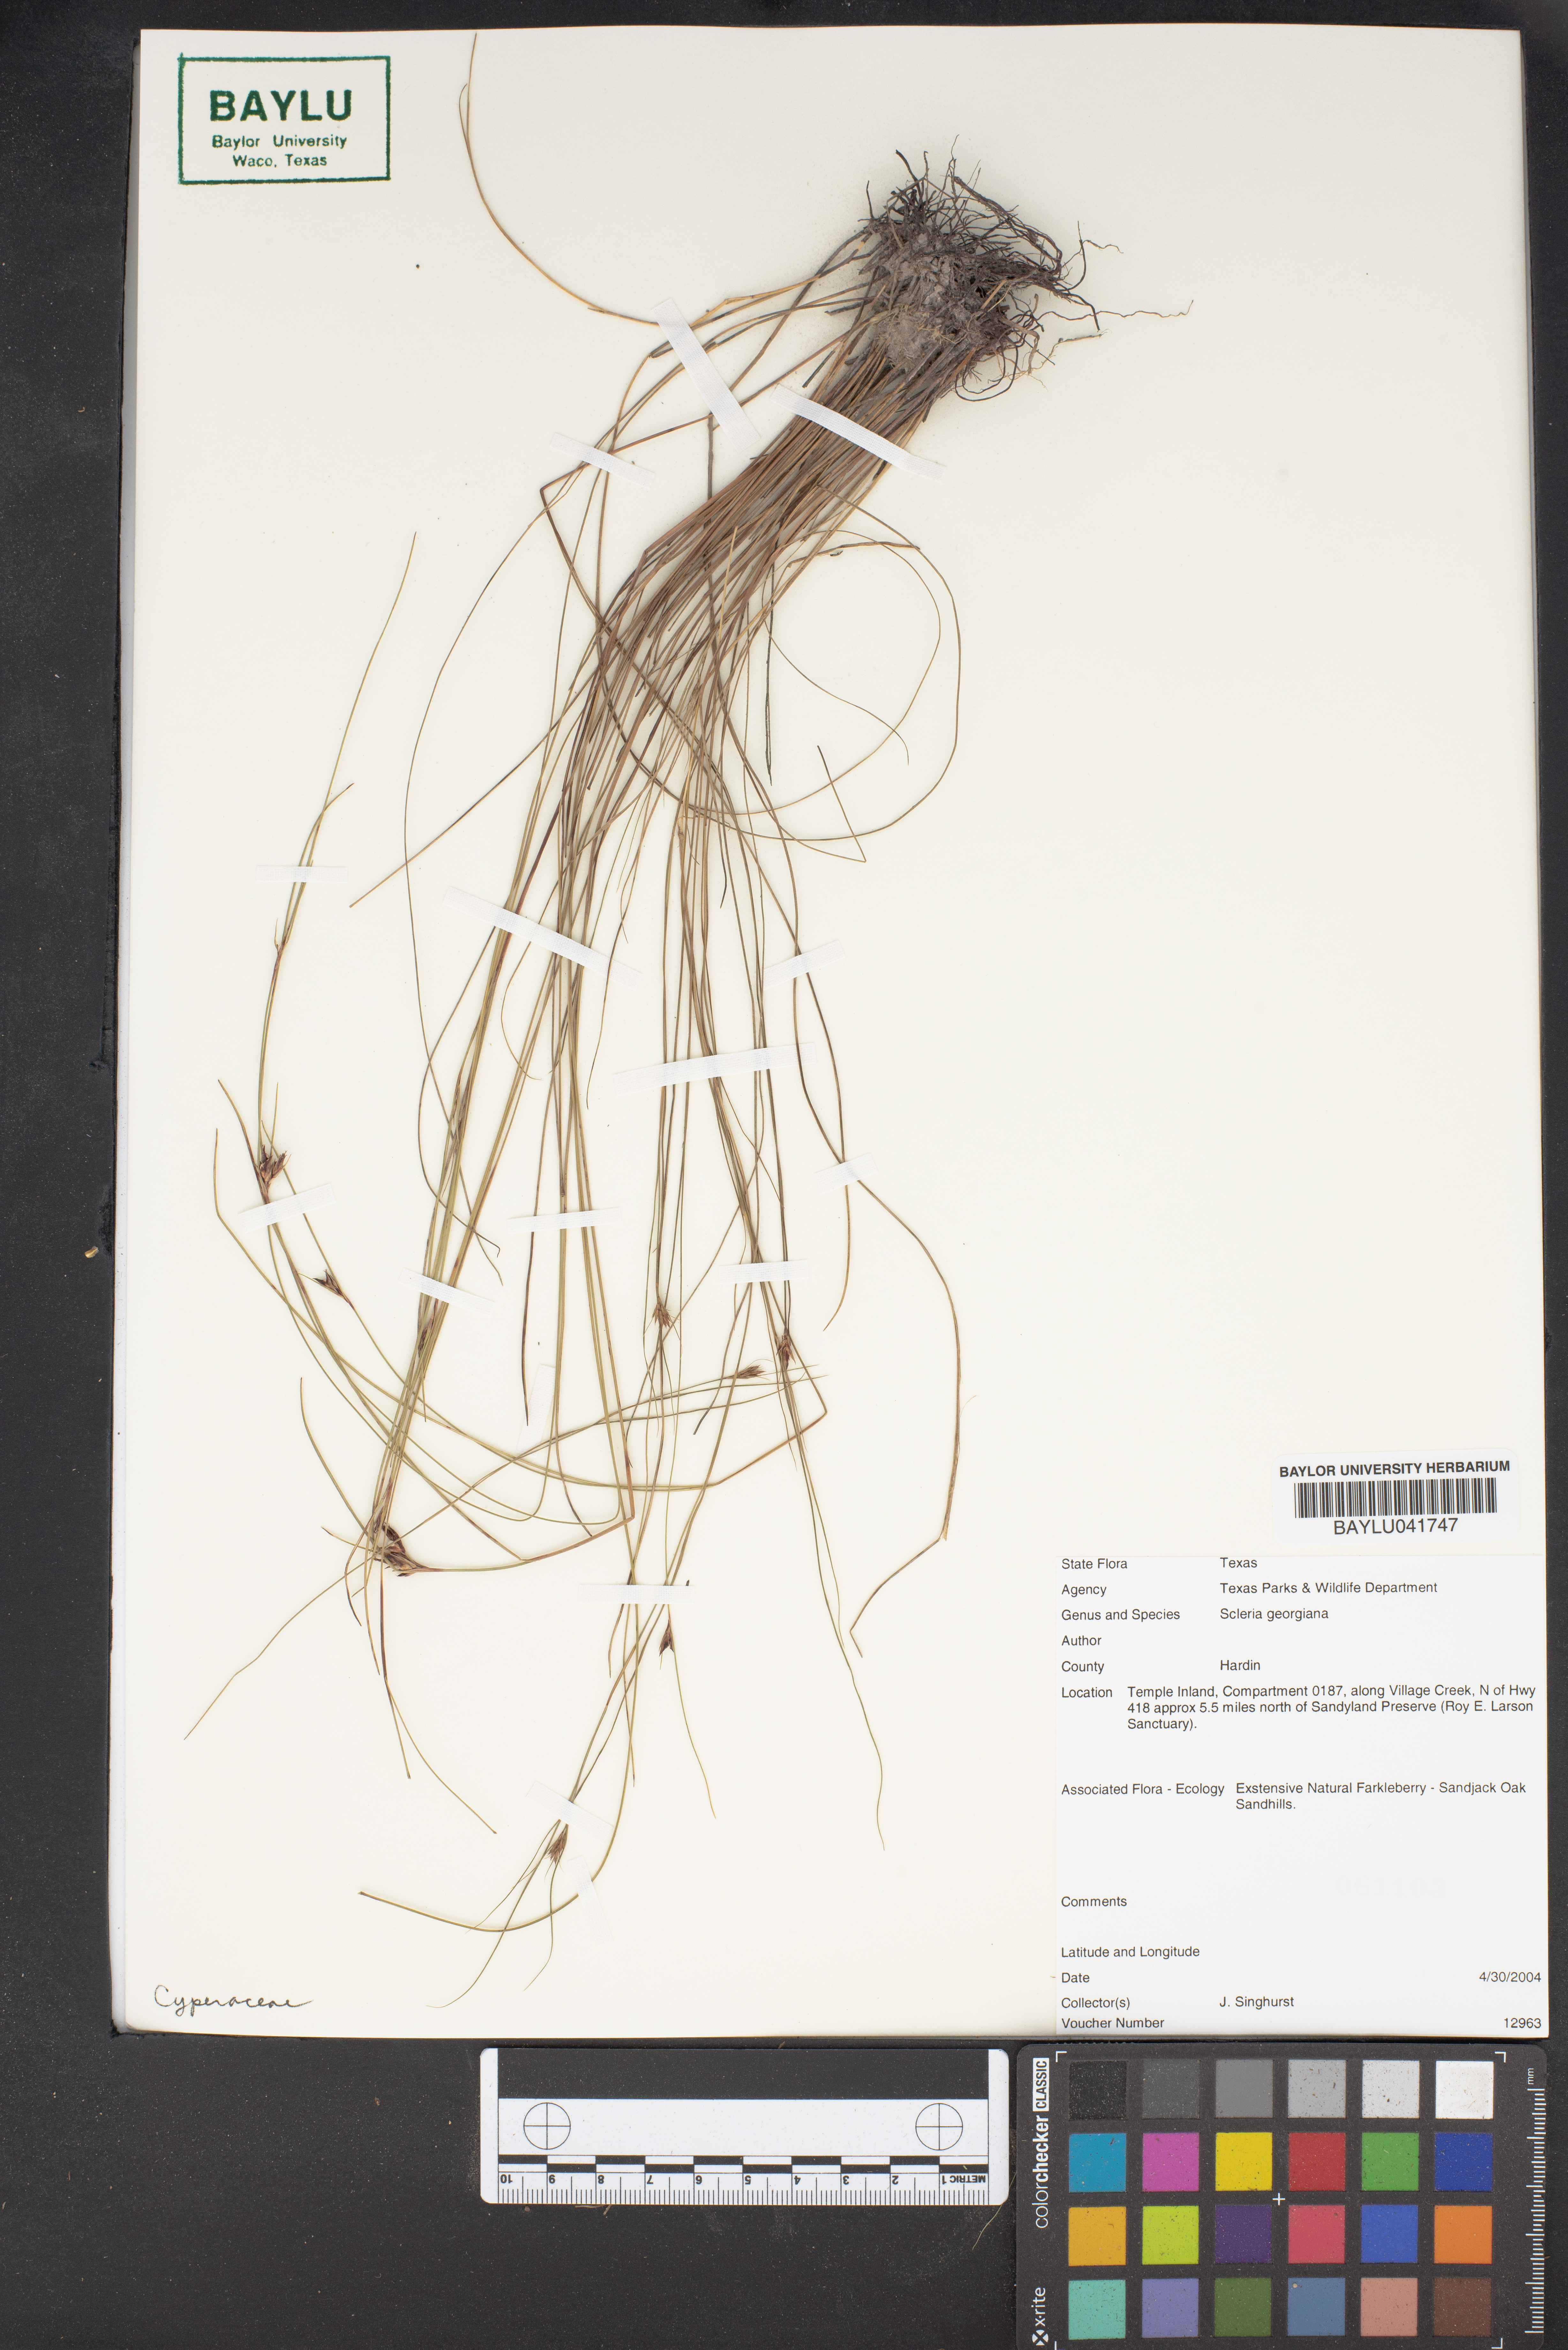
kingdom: Plantae
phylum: Tracheophyta
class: Liliopsida
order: Poales
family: Cyperaceae
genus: Scleria
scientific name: Scleria georgiana
